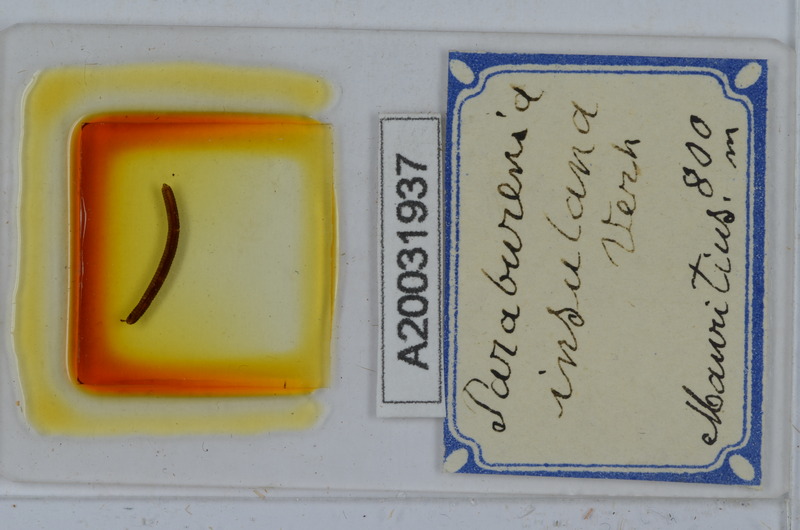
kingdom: Animalia
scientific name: Animalia
